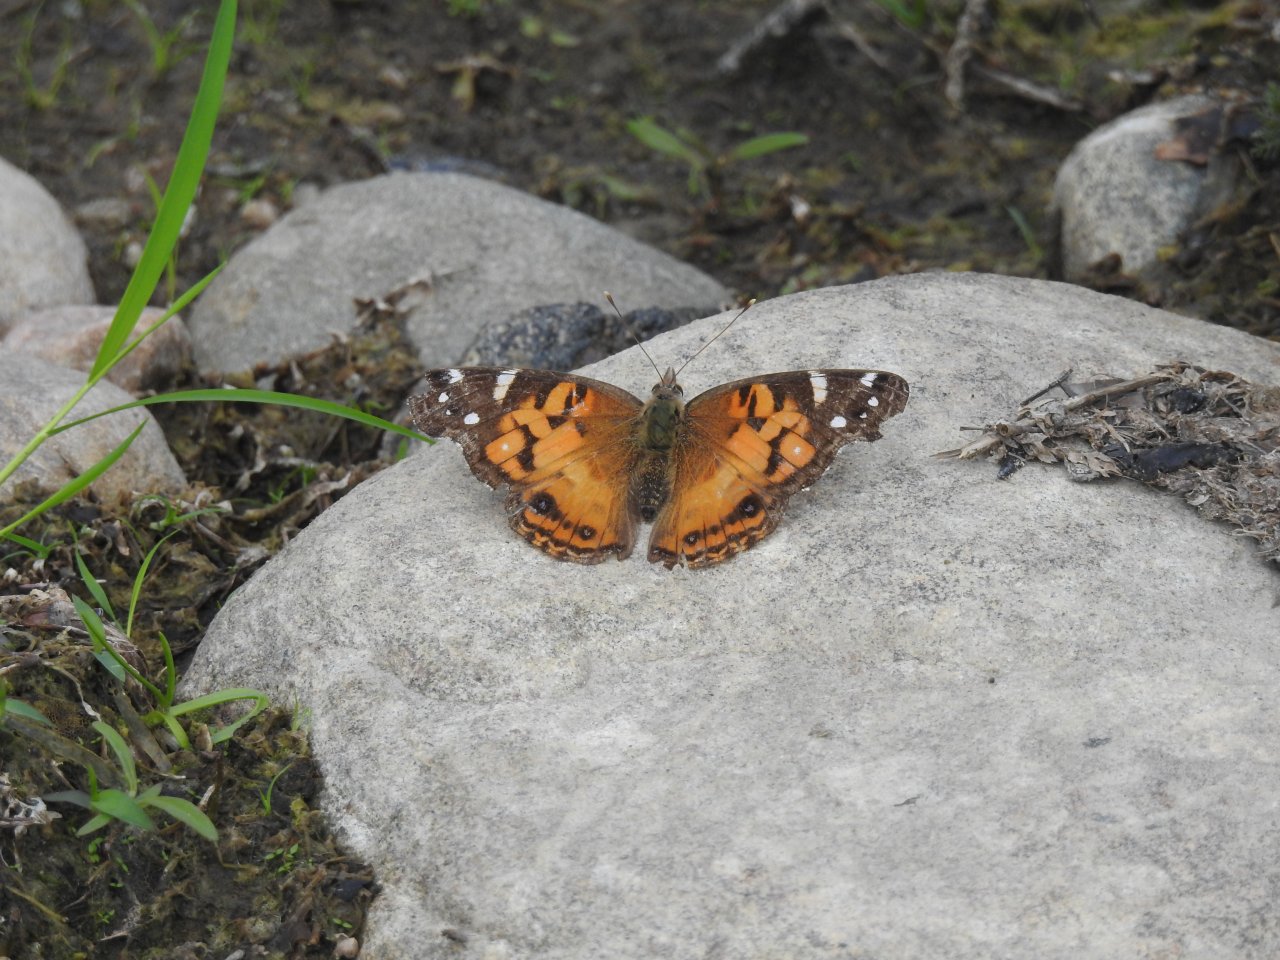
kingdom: Animalia
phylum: Arthropoda
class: Insecta
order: Lepidoptera
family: Nymphalidae
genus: Vanessa
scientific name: Vanessa virginiensis
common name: American Lady
